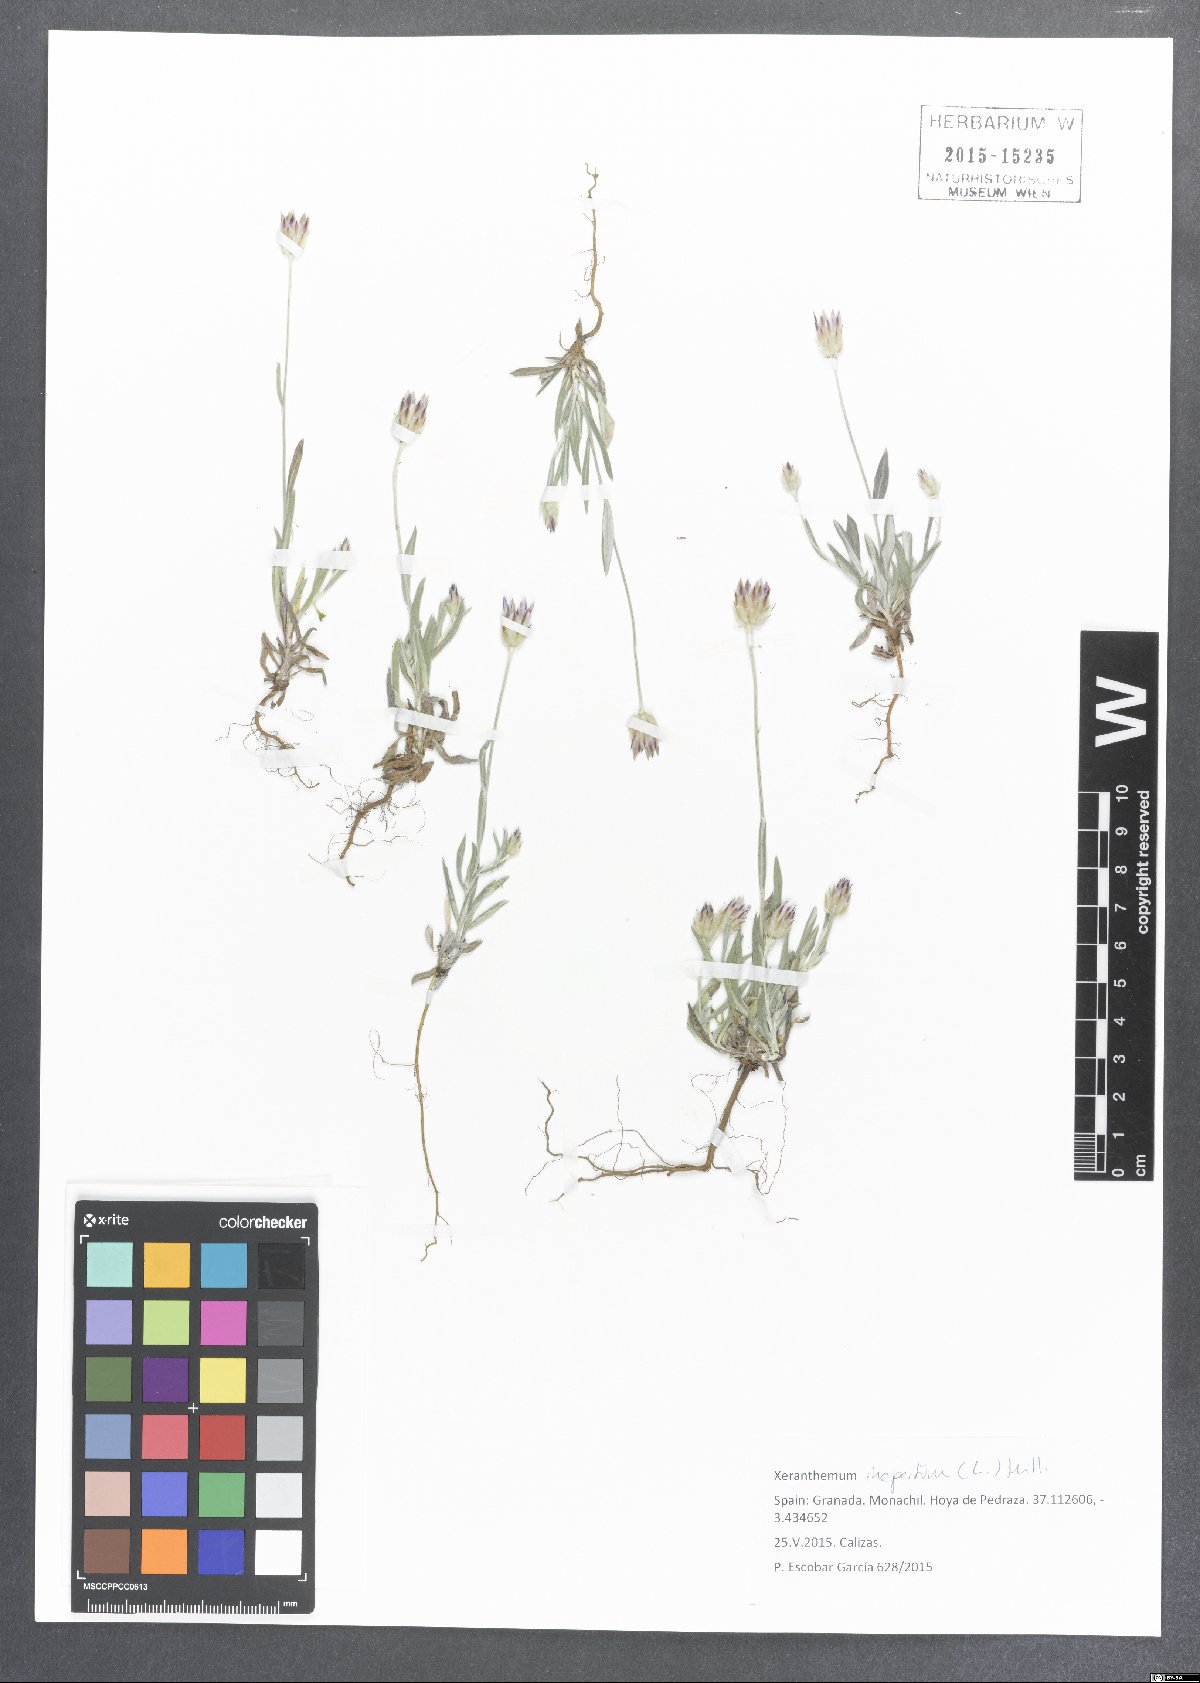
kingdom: Plantae
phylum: Tracheophyta
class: Magnoliopsida
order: Asterales
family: Asteraceae
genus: Xeranthemum
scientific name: Xeranthemum inapertum
